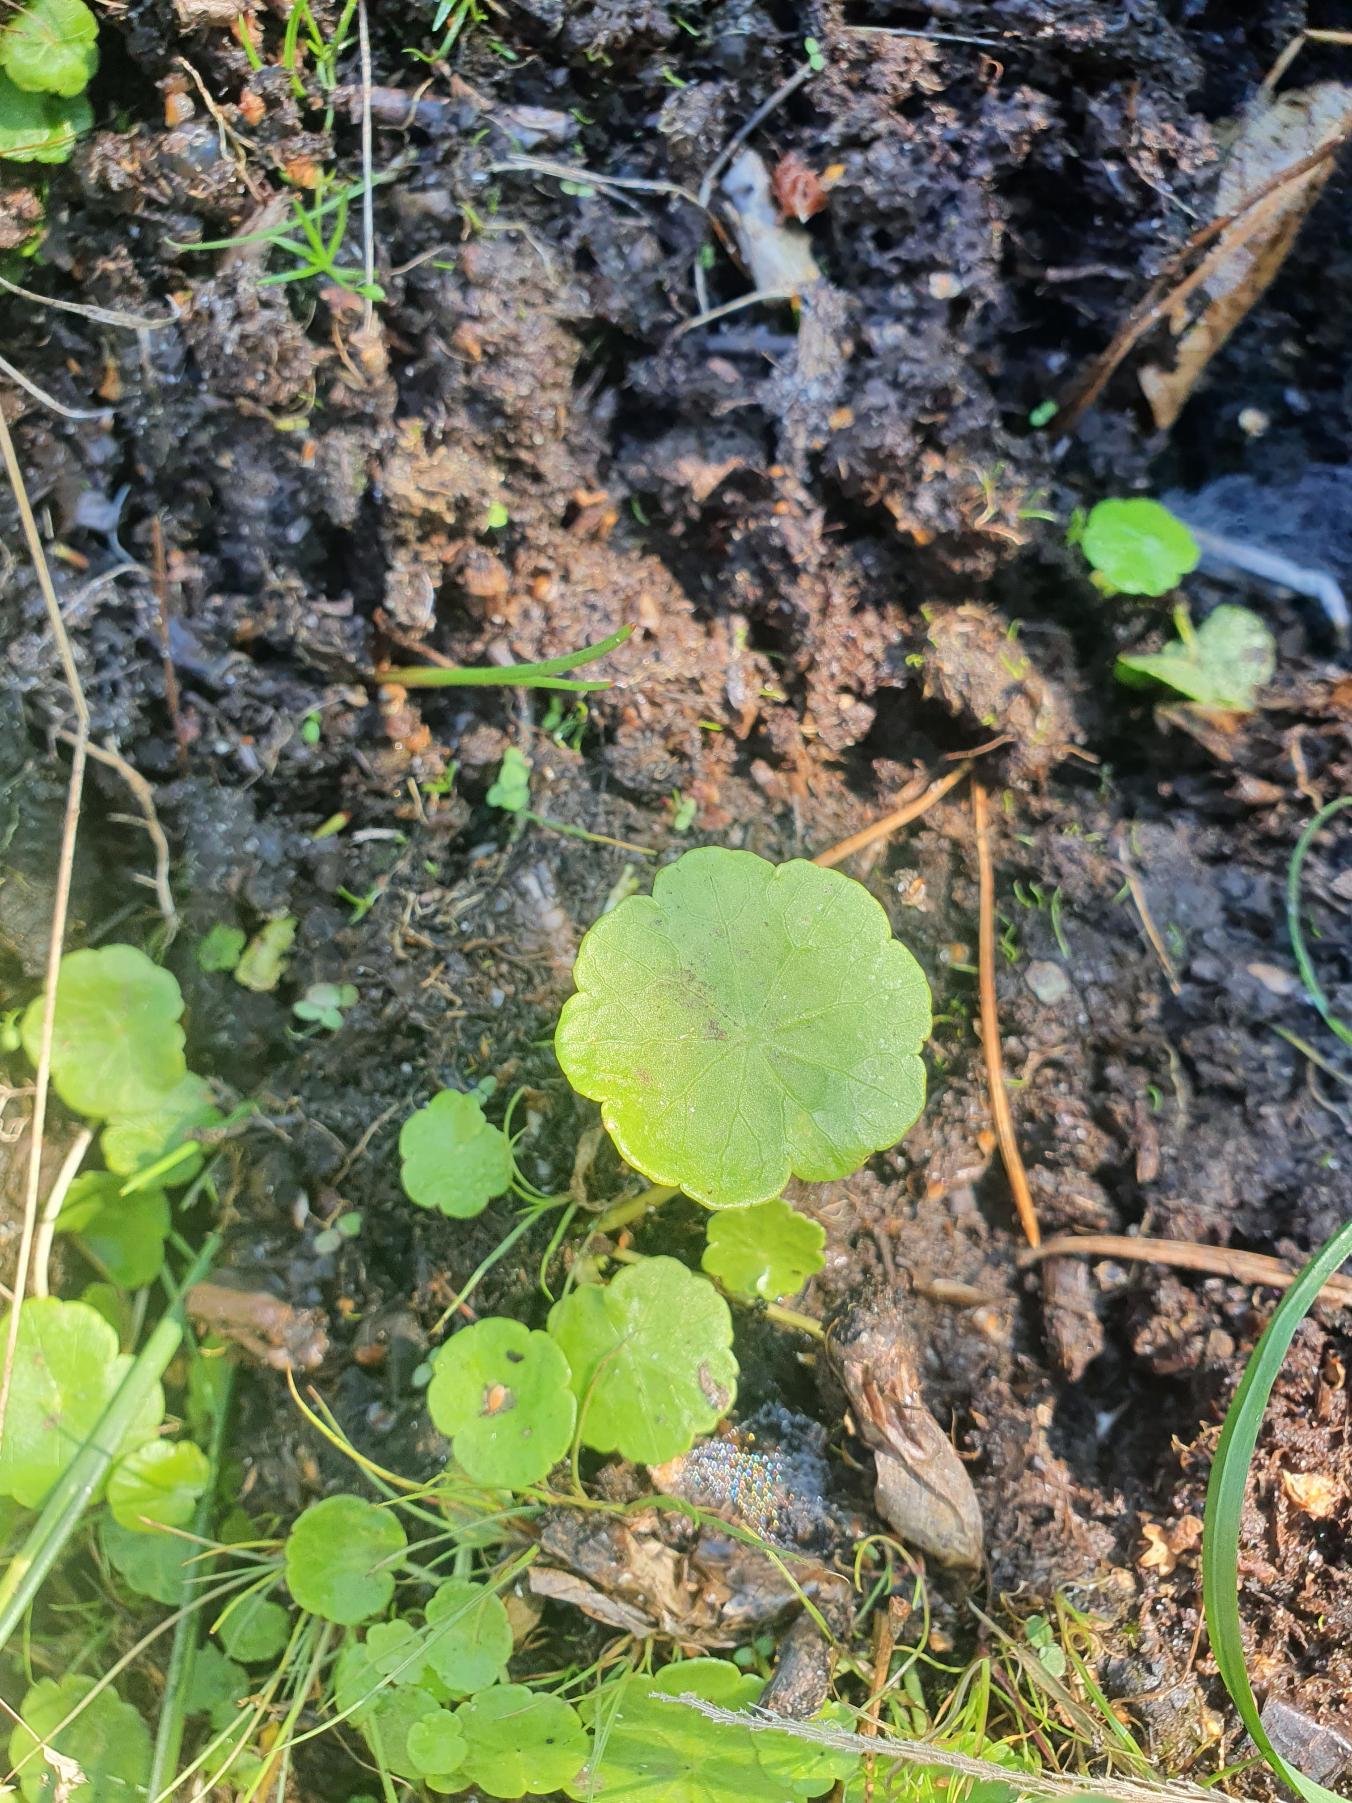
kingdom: Plantae
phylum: Tracheophyta
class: Magnoliopsida
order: Apiales
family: Araliaceae
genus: Hydrocotyle
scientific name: Hydrocotyle vulgaris
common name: Vandnavle
